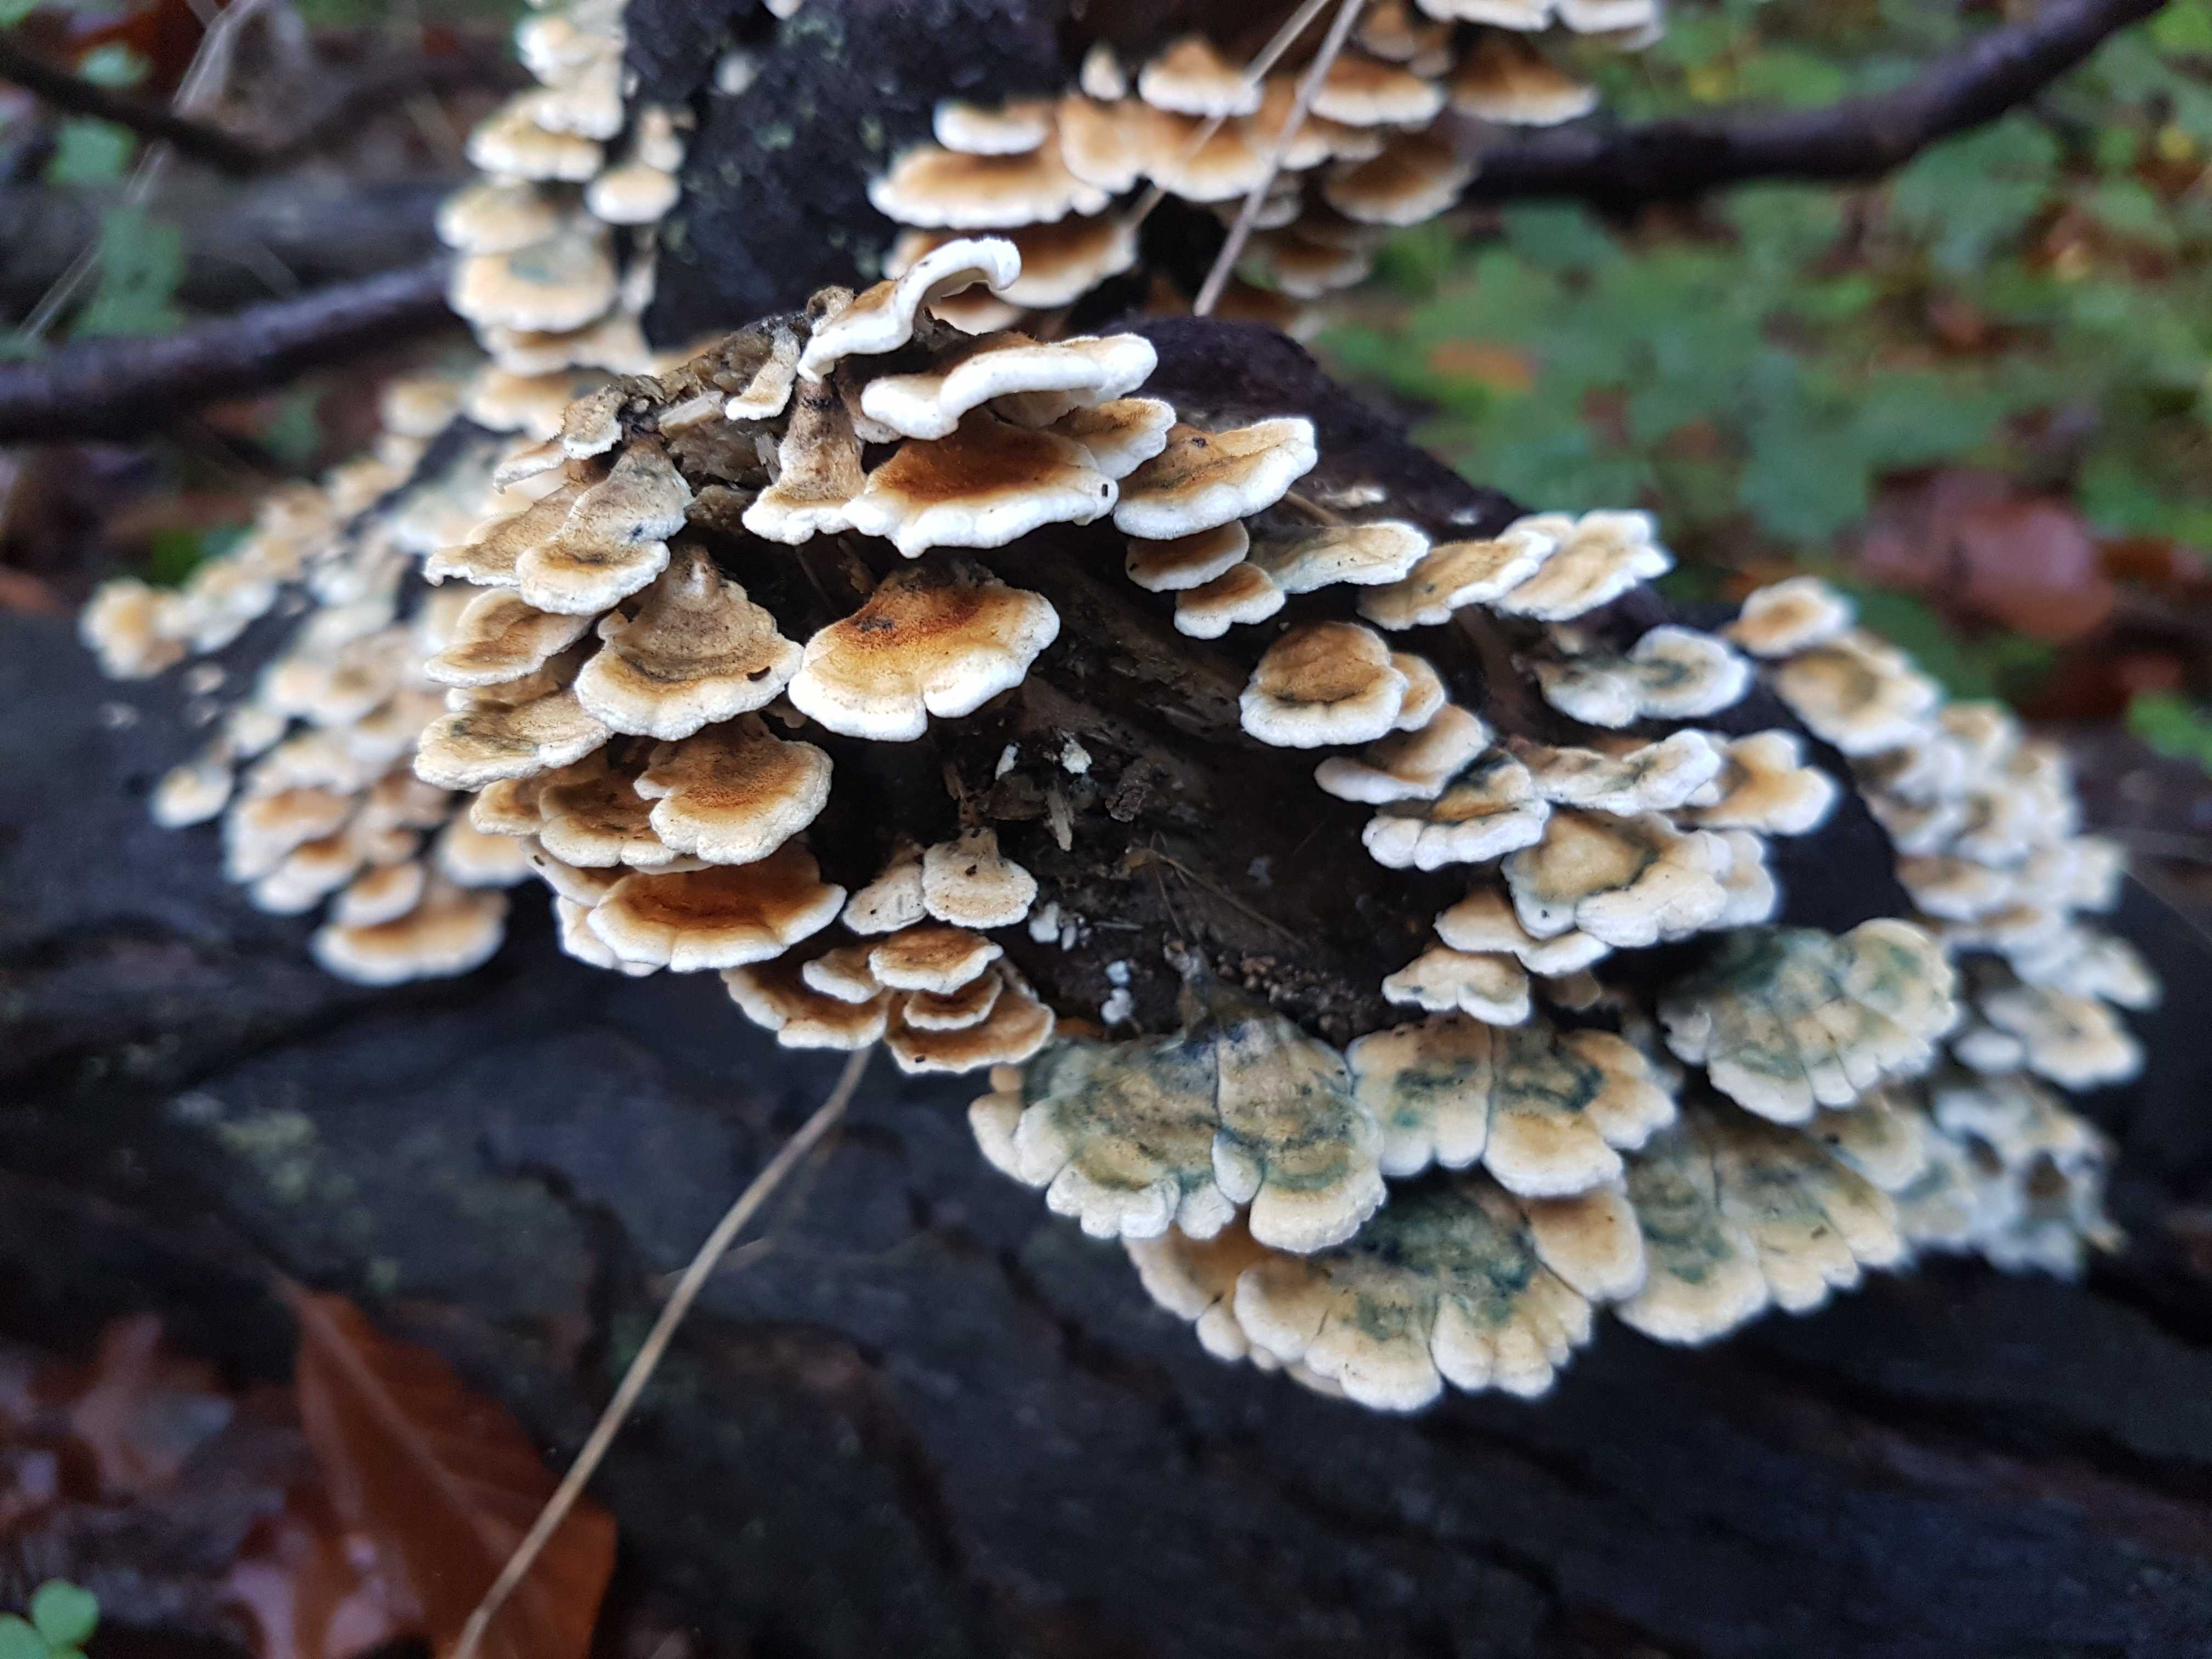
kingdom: Fungi
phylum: Basidiomycota
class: Agaricomycetes
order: Amylocorticiales
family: Amylocorticiaceae
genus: Plicaturopsis
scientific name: Plicaturopsis crispa
